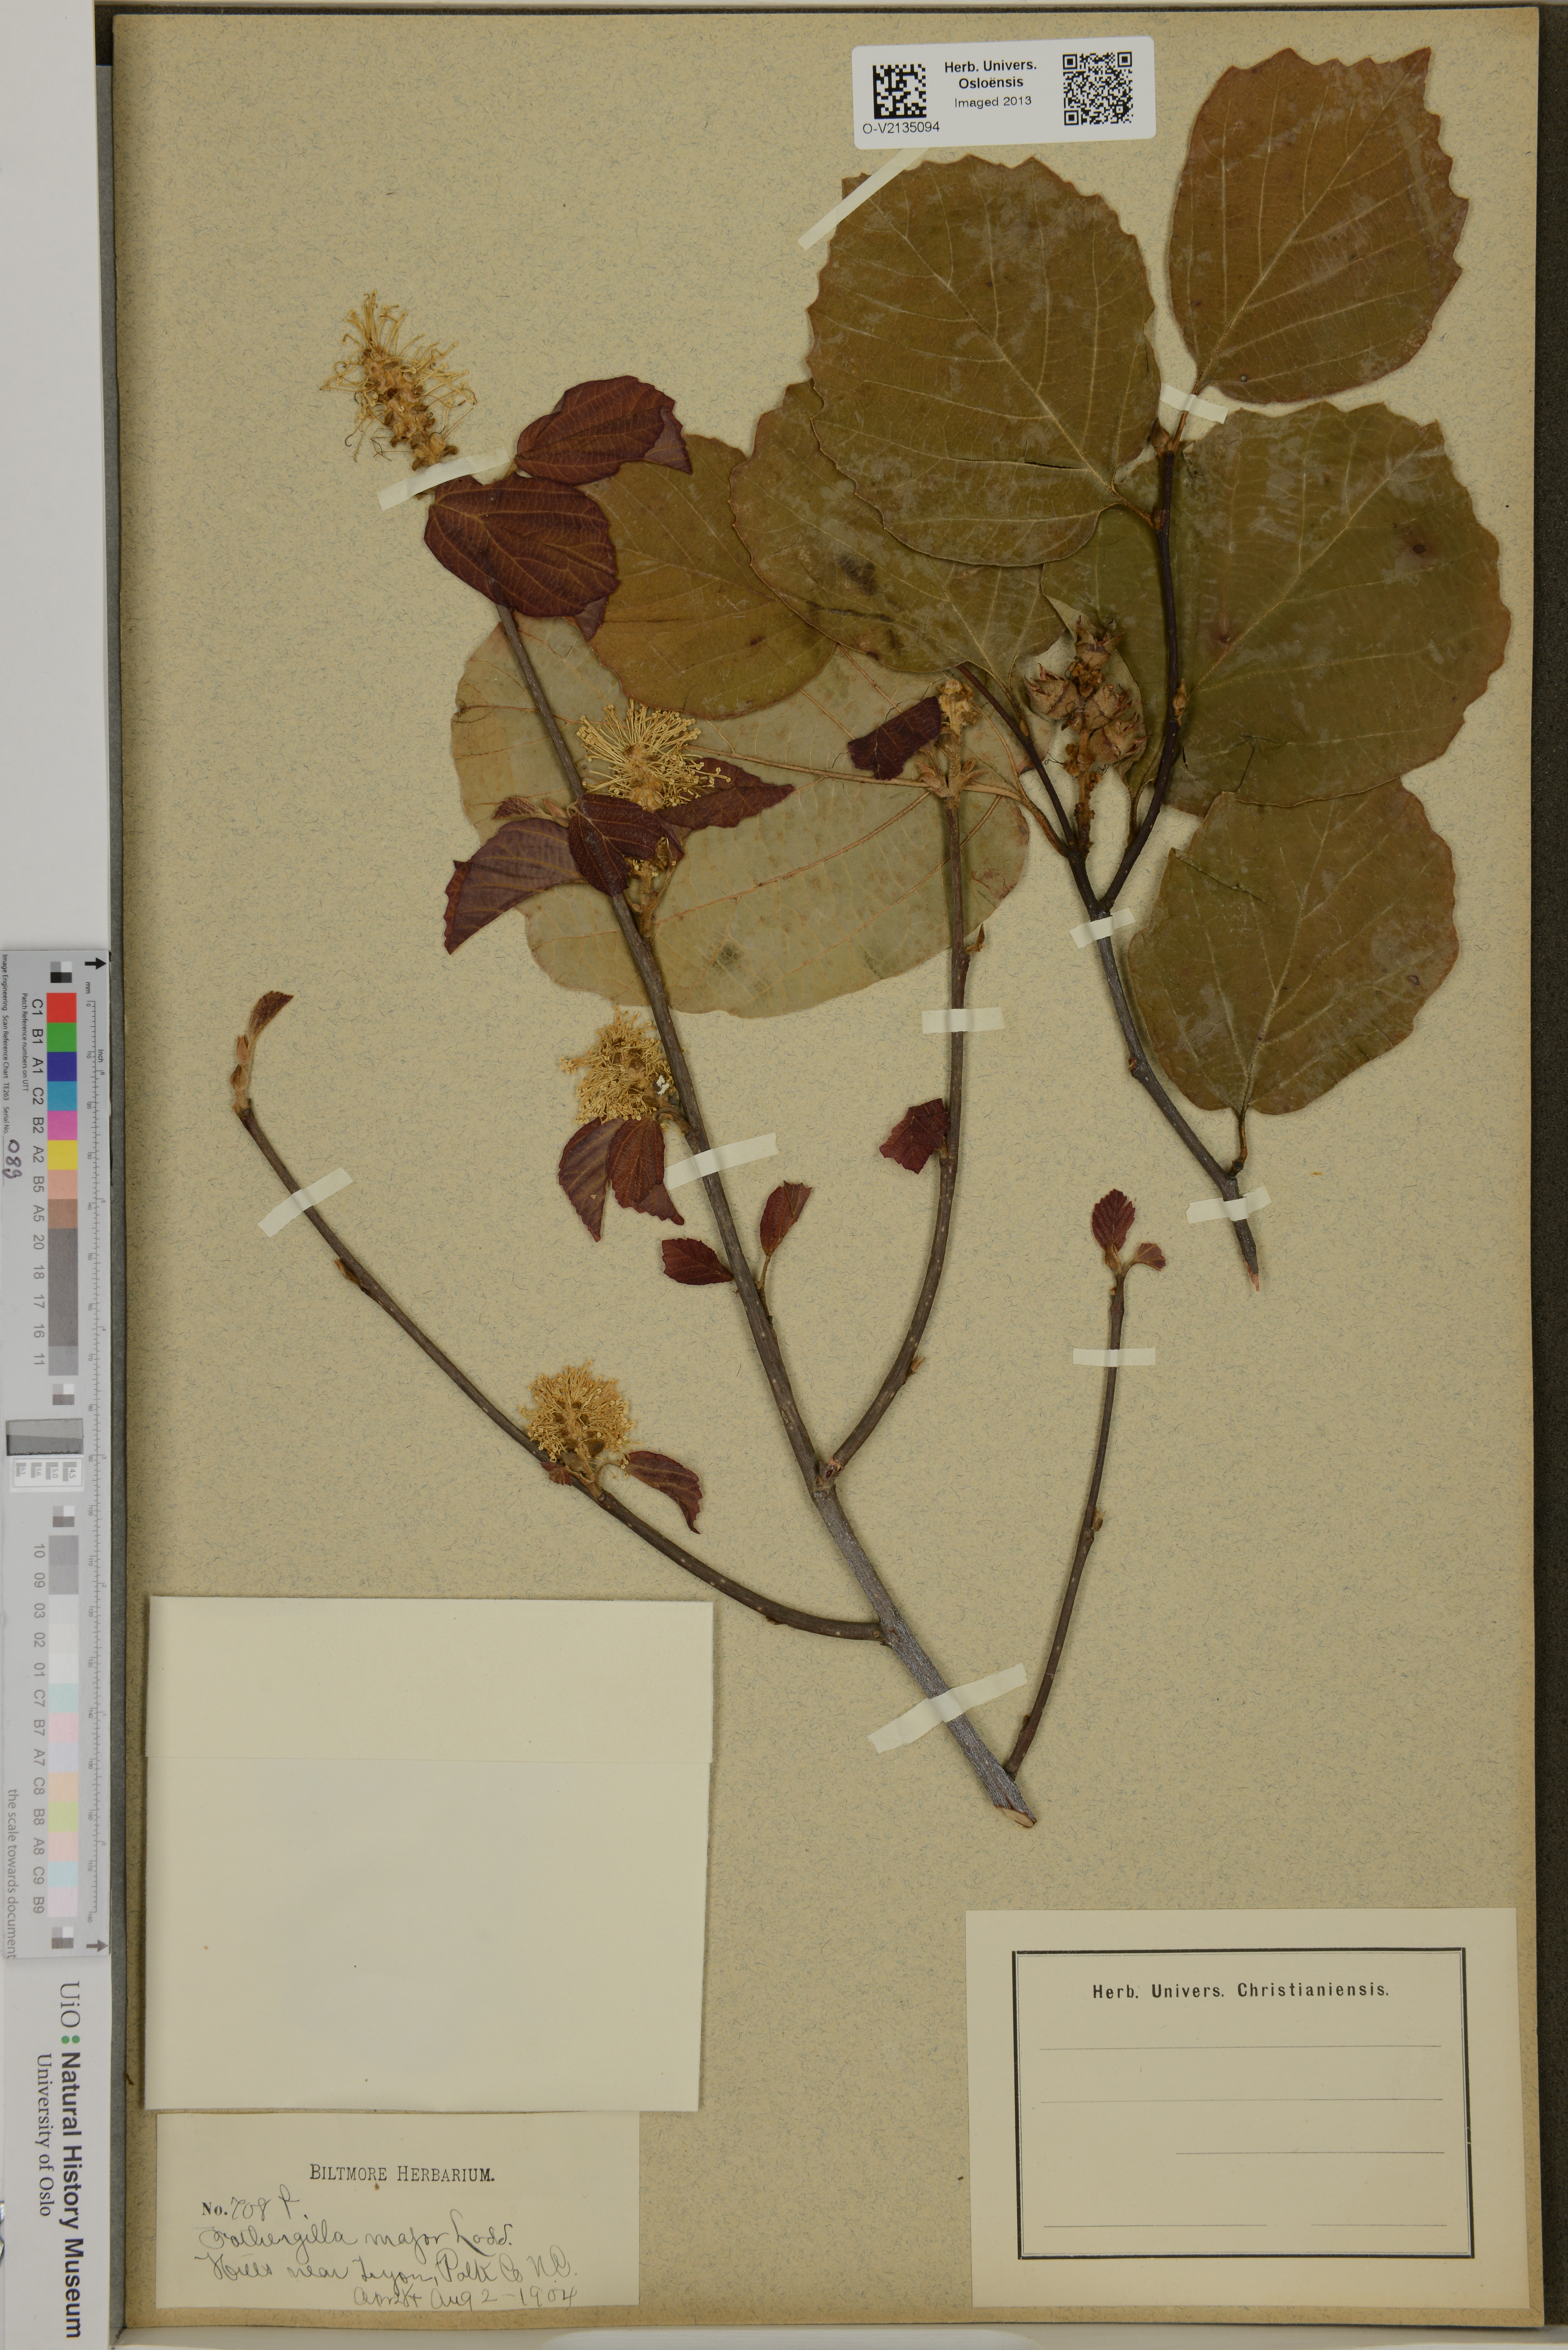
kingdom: Plantae
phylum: Tracheophyta
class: Magnoliopsida
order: Saxifragales
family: Hamamelidaceae
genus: Fothergilla
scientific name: Fothergilla latifolia
